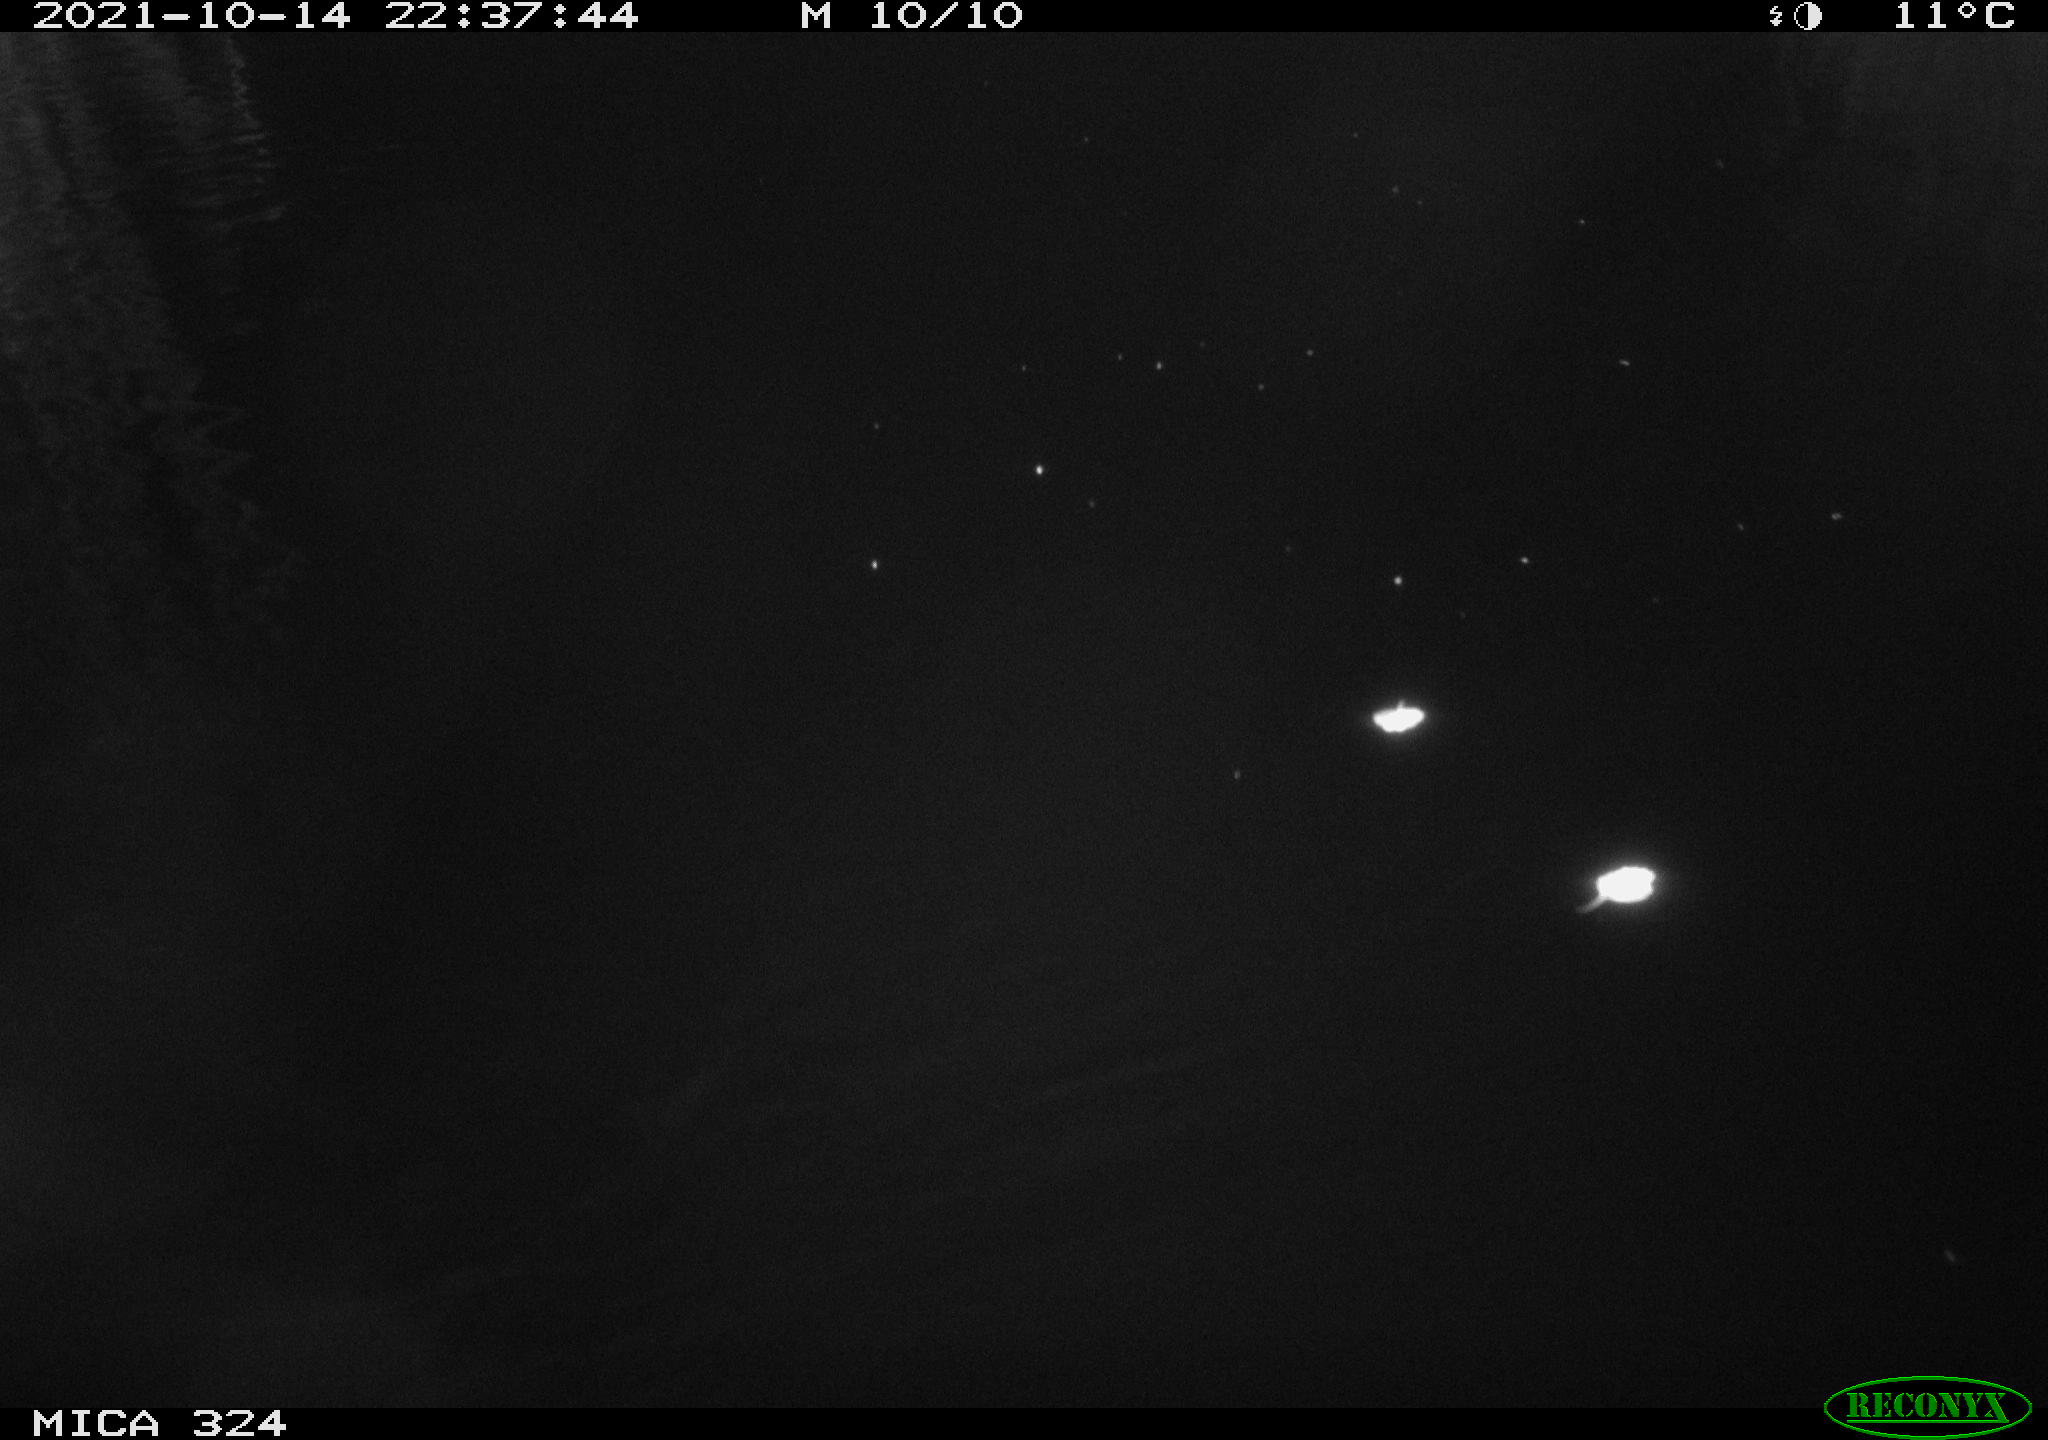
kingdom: Animalia
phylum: Chordata
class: Mammalia
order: Rodentia
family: Cricetidae
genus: Ondatra
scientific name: Ondatra zibethicus
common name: Muskrat
